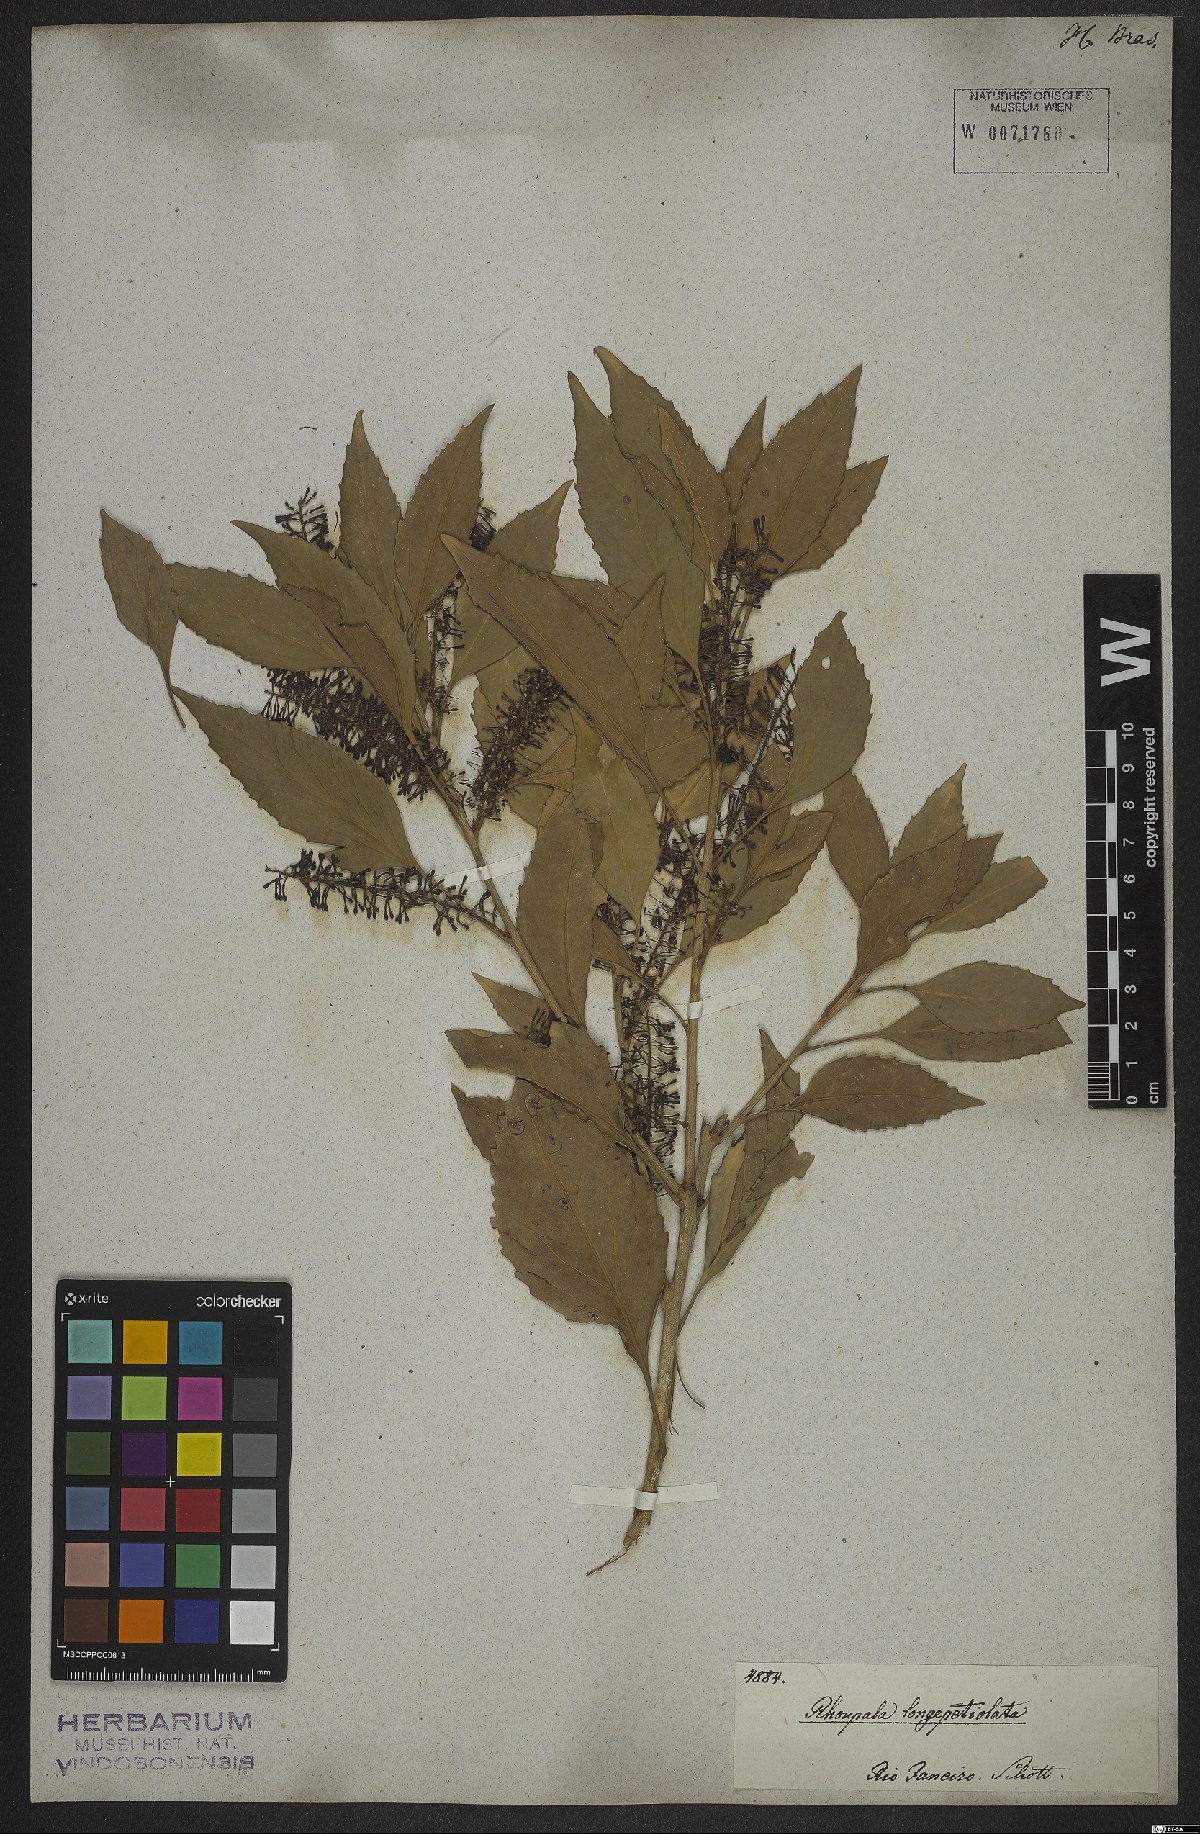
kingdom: Plantae
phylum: Tracheophyta
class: Magnoliopsida
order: Proteales
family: Proteaceae
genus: Roupala
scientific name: Roupala longepetiolata
